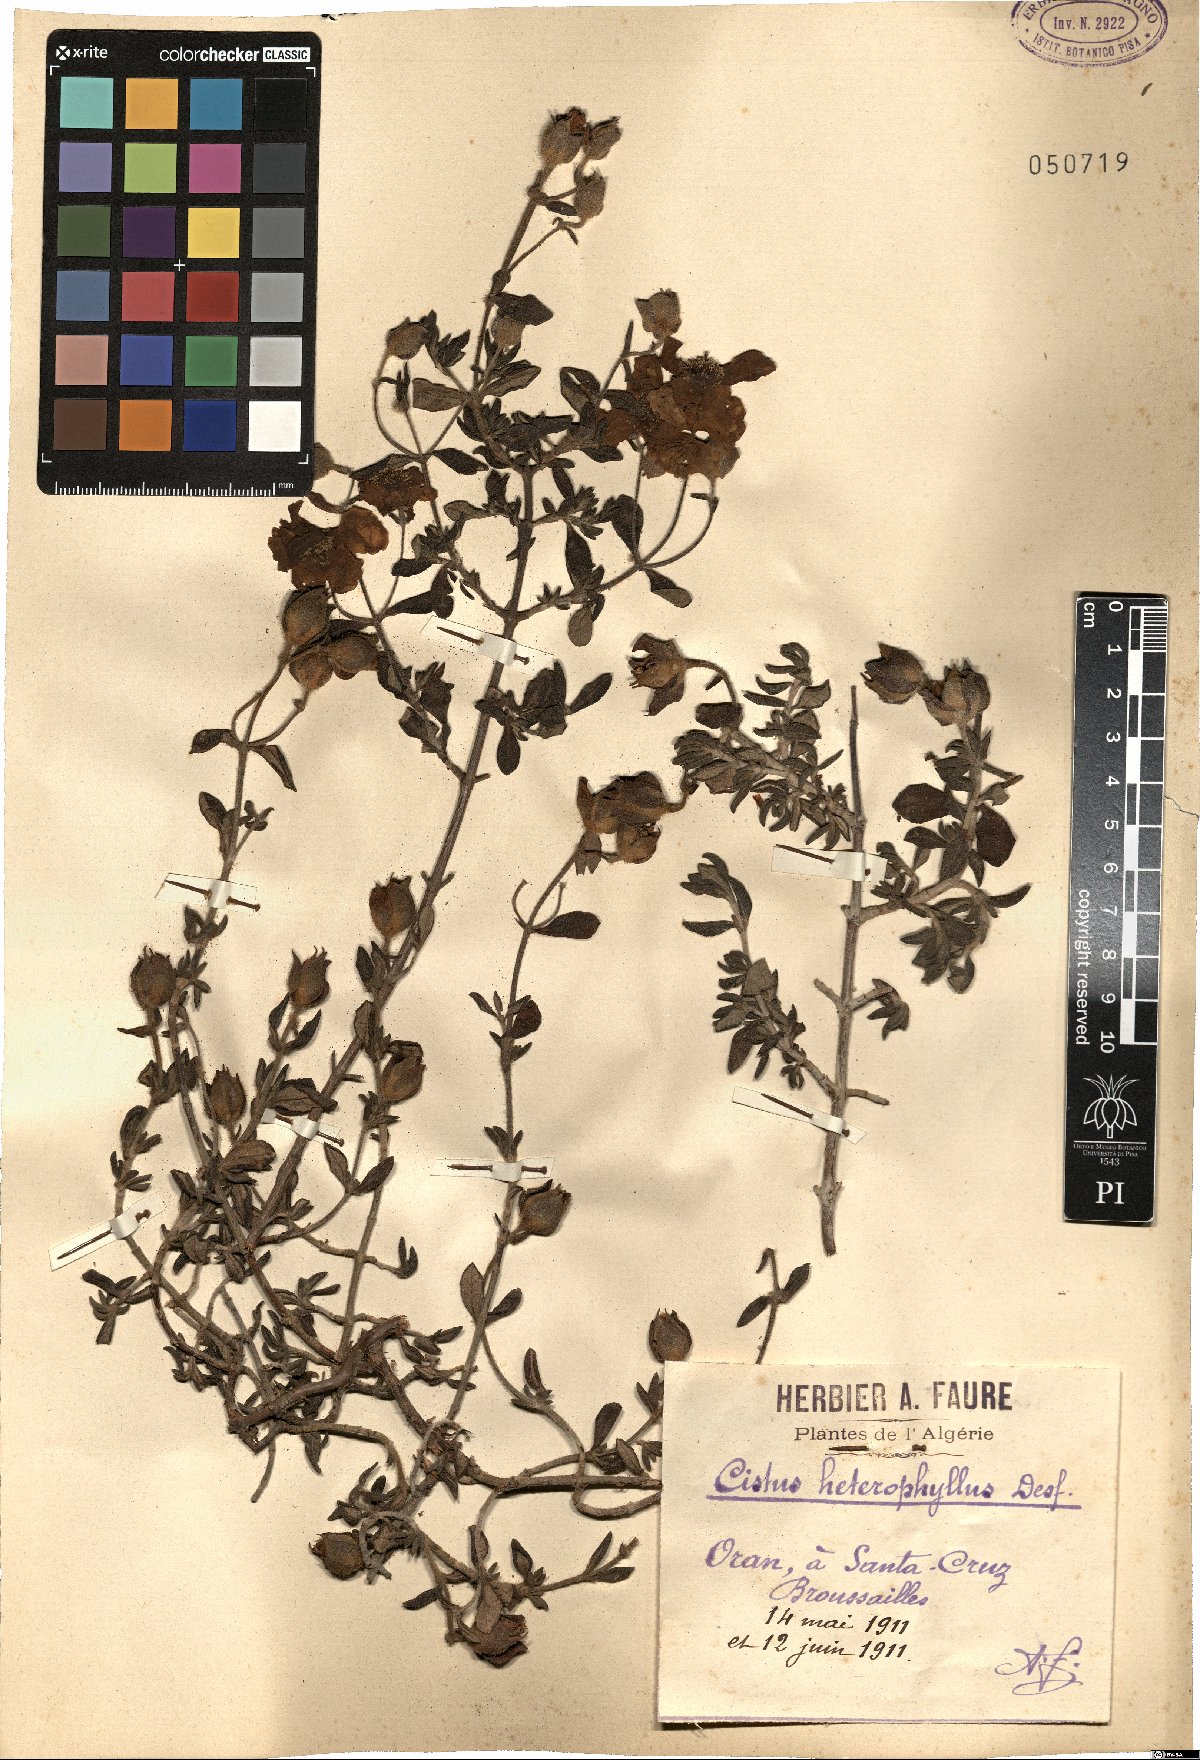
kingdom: Plantae
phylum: Tracheophyta
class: Magnoliopsida
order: Malvales
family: Cistaceae
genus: Cistus
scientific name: Cistus heterophyllus
